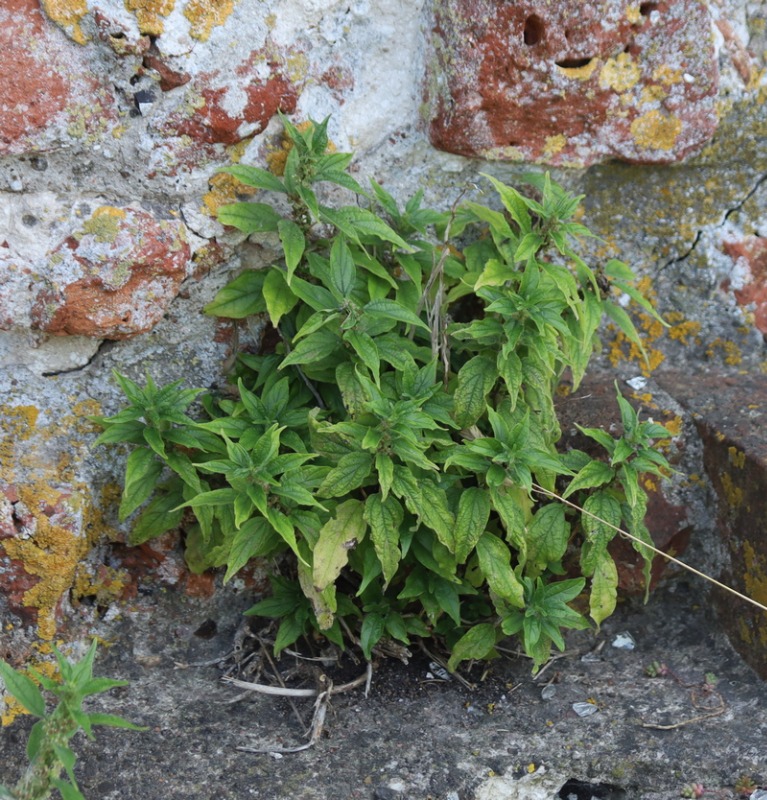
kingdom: Plantae
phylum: Tracheophyta
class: Magnoliopsida
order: Rosales
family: Urticaceae
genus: Parietaria
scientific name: Parietaria officinalis
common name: Almindelig springknap
